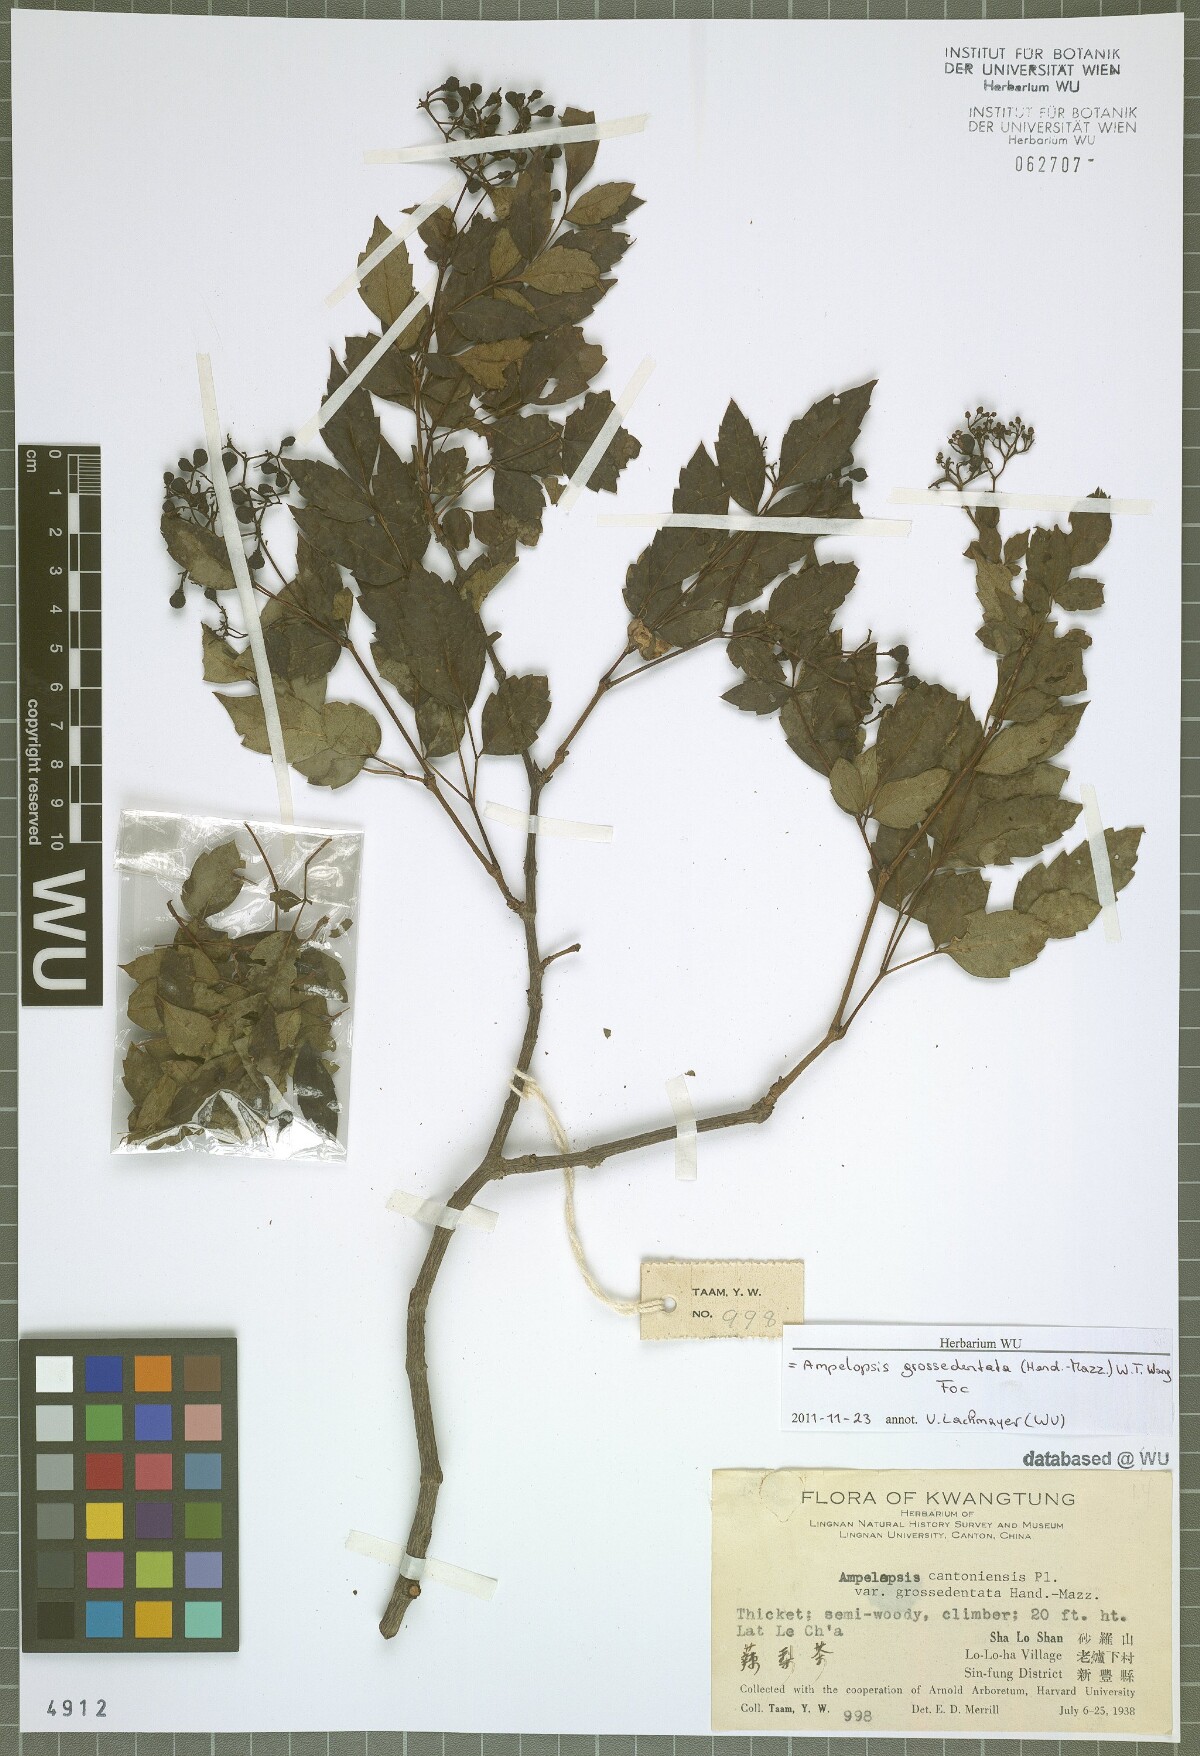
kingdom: Plantae
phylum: Tracheophyta
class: Magnoliopsida
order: Vitales
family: Vitaceae
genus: Nekemias
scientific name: Nekemias grossedentata
